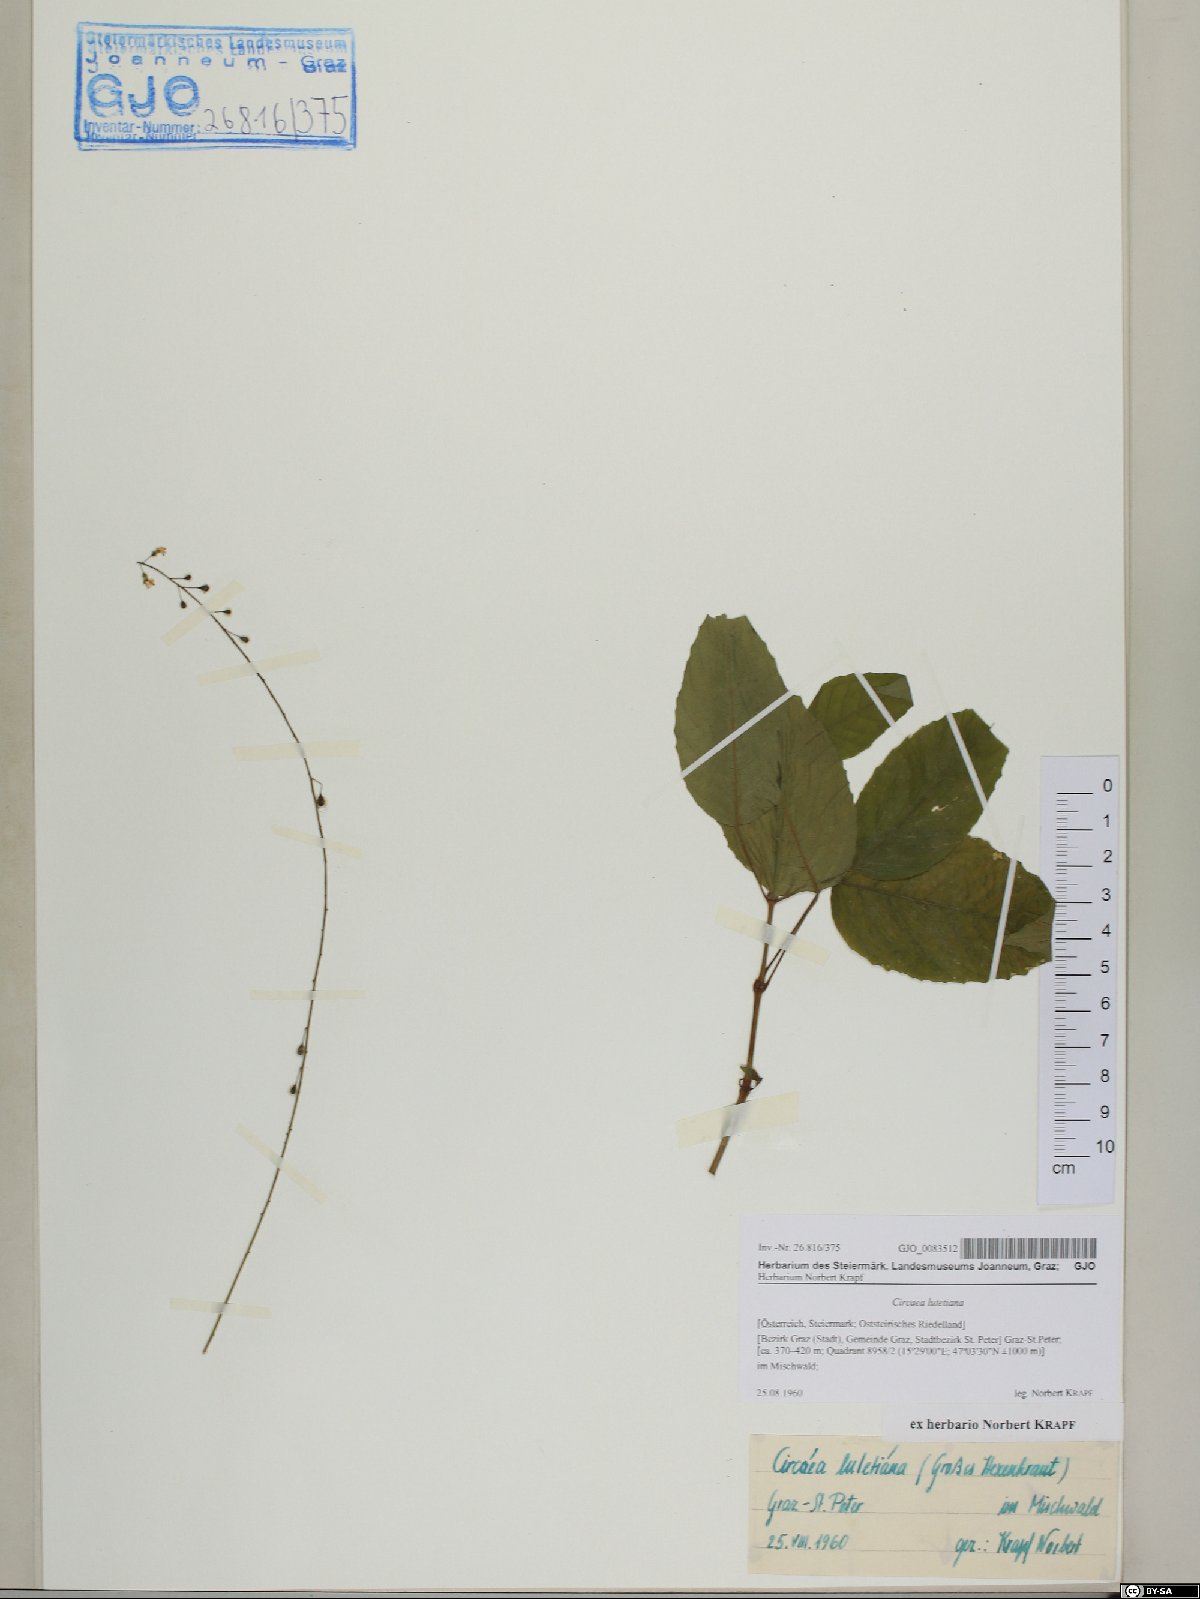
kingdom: Plantae
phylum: Tracheophyta
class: Magnoliopsida
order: Myrtales
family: Onagraceae
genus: Circaea
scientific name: Circaea lutetiana
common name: Enchanter's-nightshade
